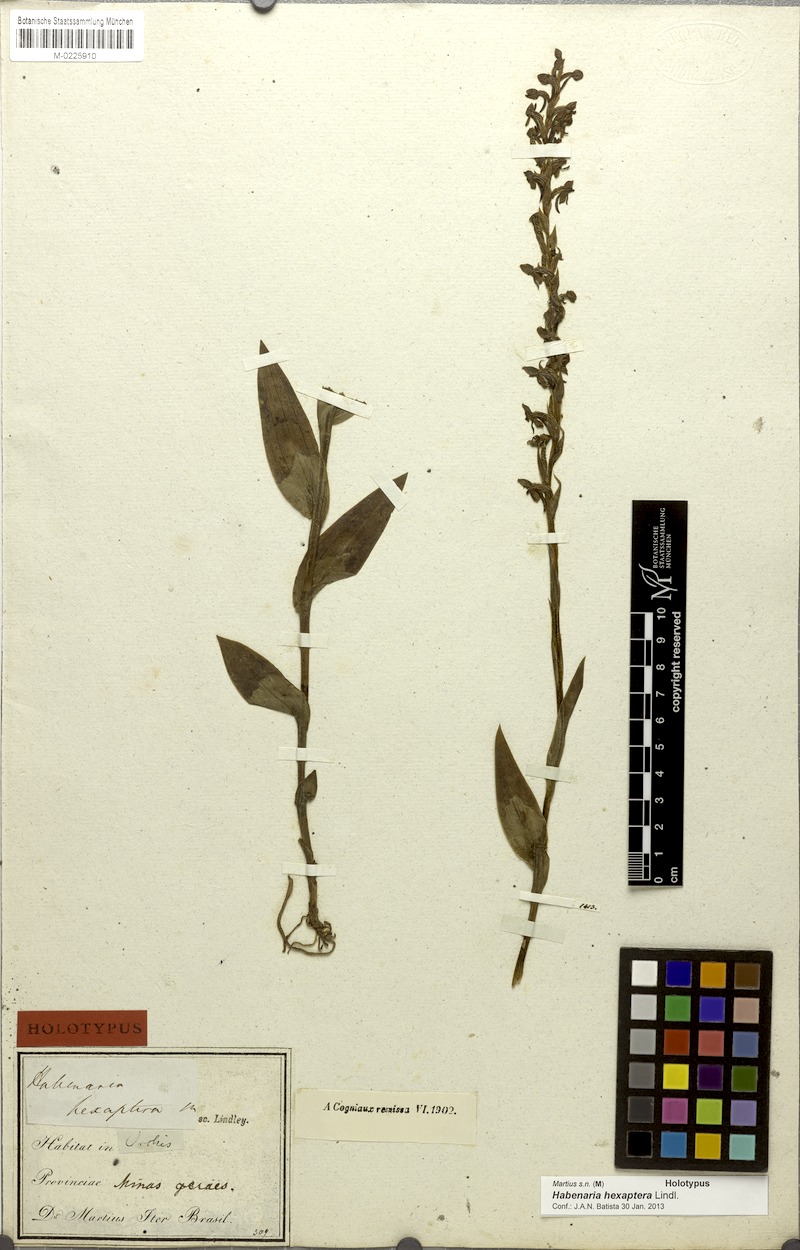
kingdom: Plantae
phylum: Tracheophyta
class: Liliopsida
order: Asparagales
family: Orchidaceae
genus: Habenaria
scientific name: Habenaria hexaptera
